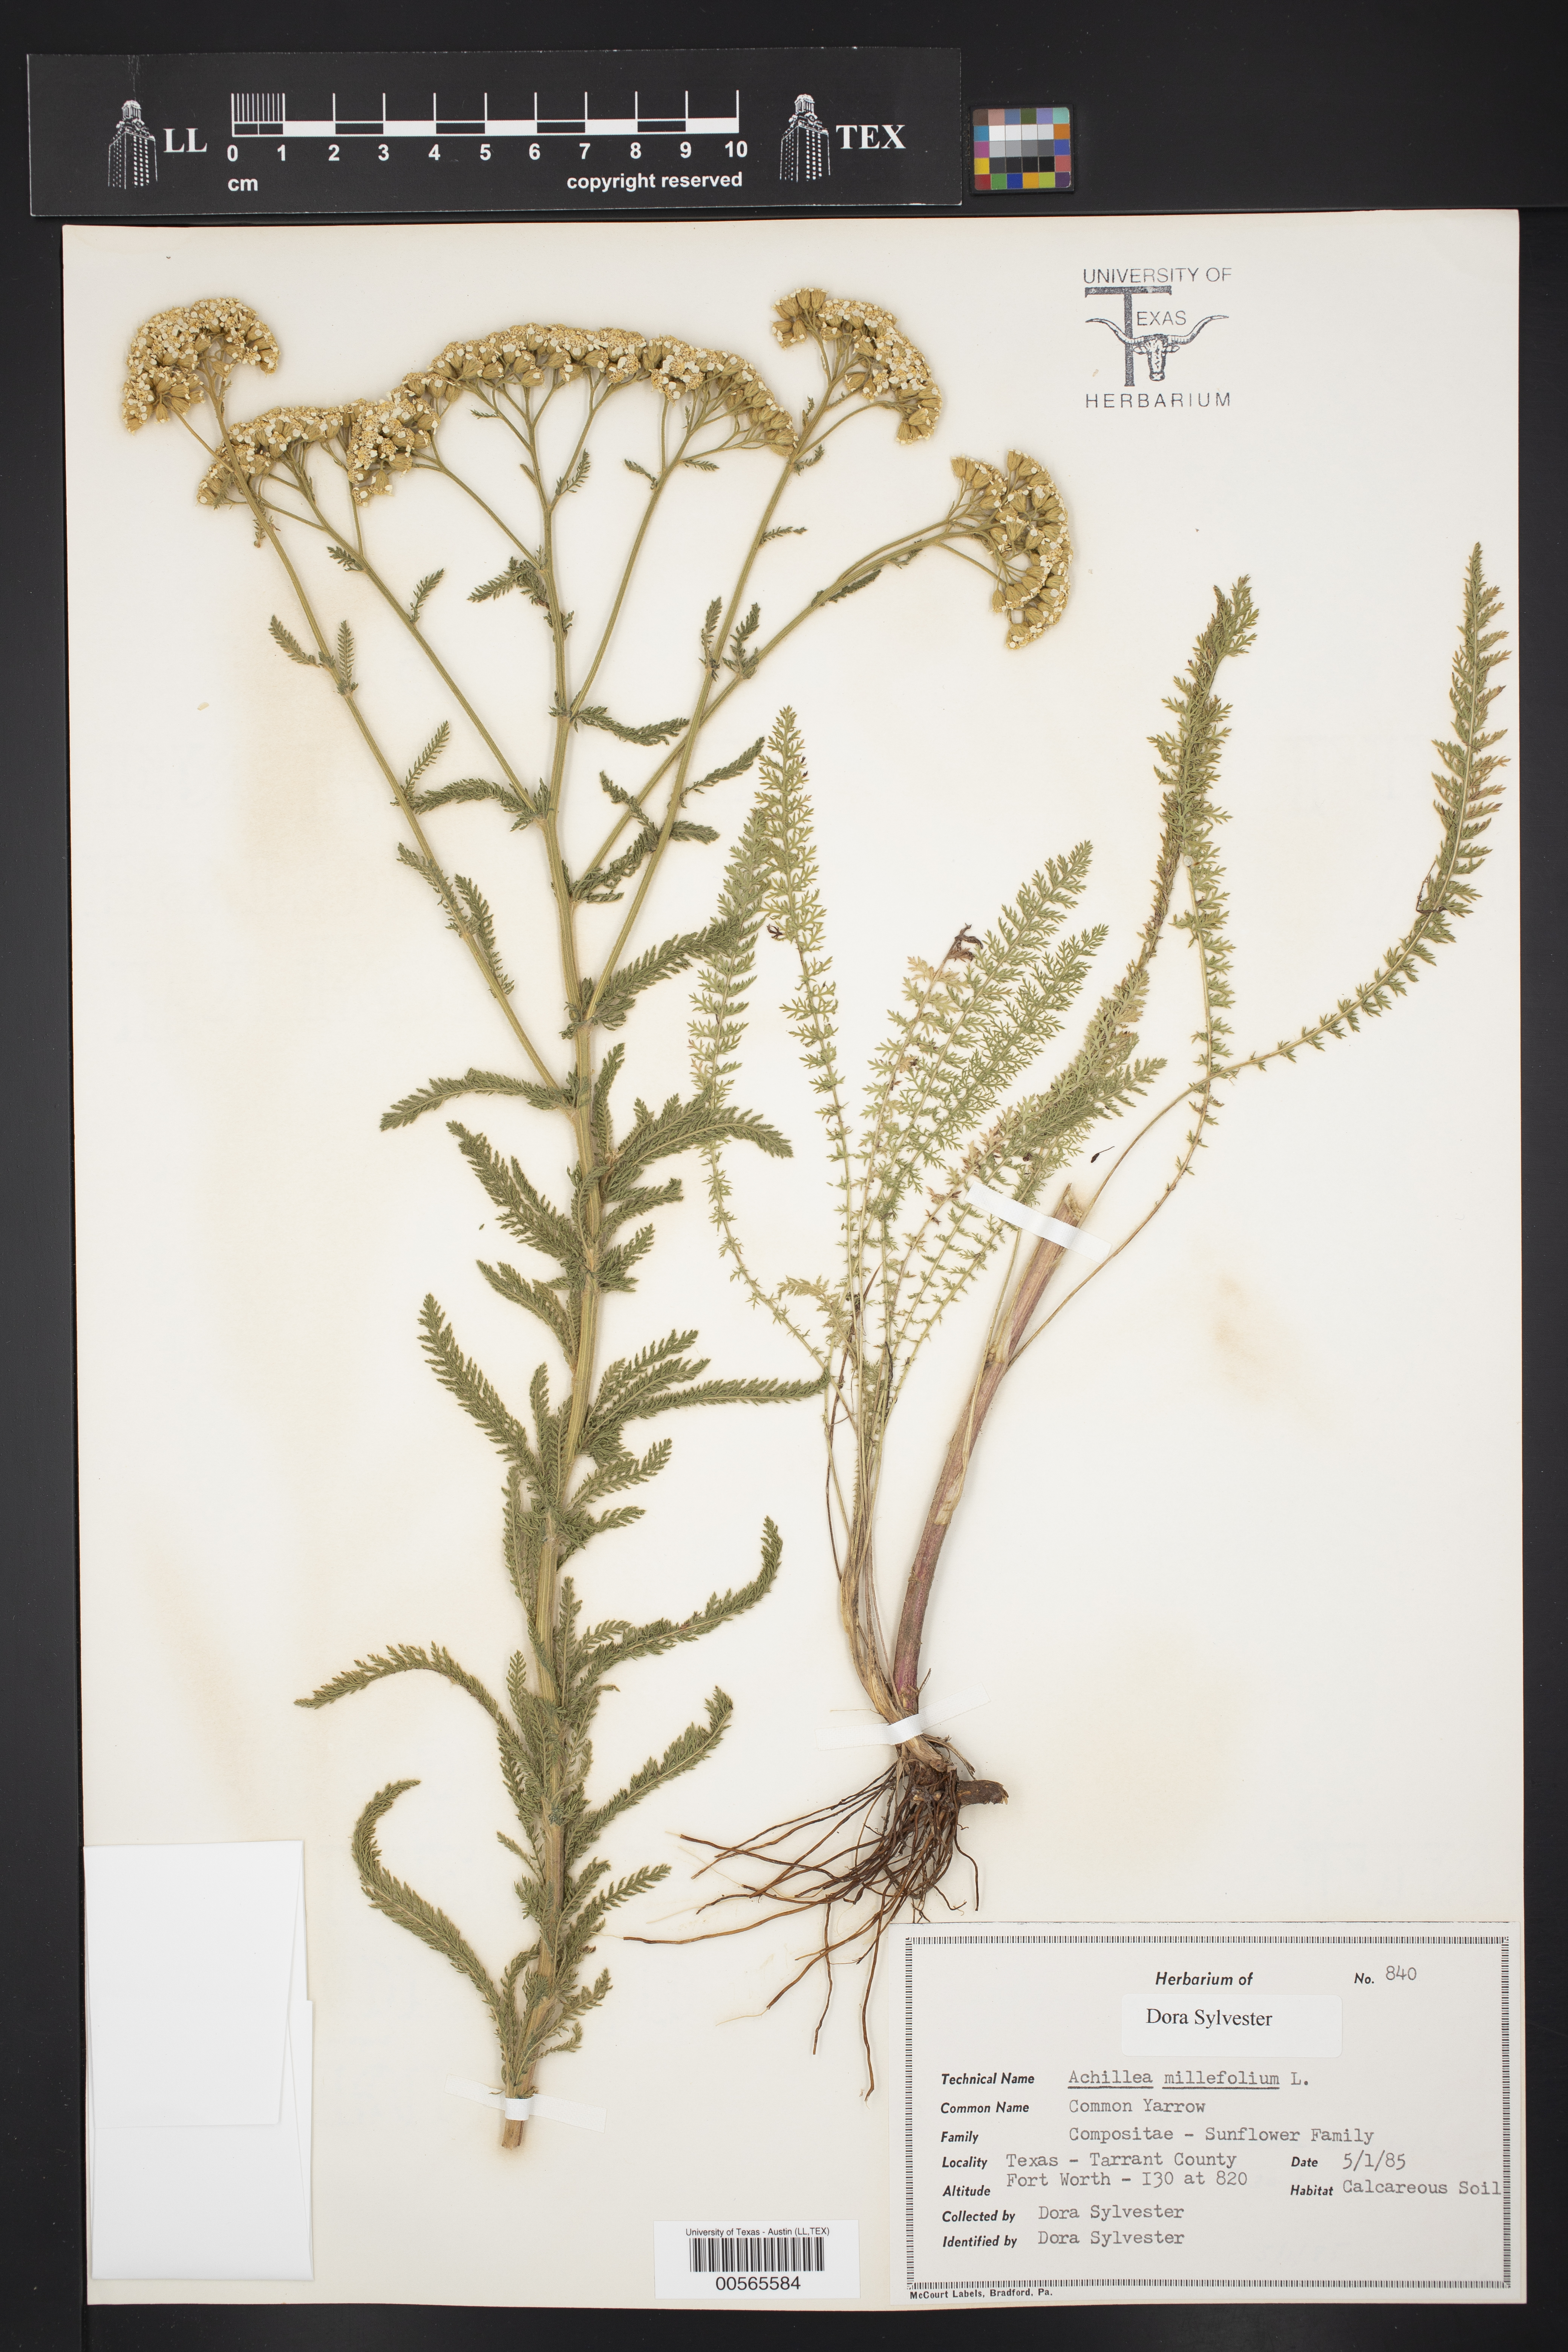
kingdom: Plantae
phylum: Tracheophyta
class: Magnoliopsida
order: Asterales
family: Asteraceae
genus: Achillea
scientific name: Achillea millefolium
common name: Yarrow
